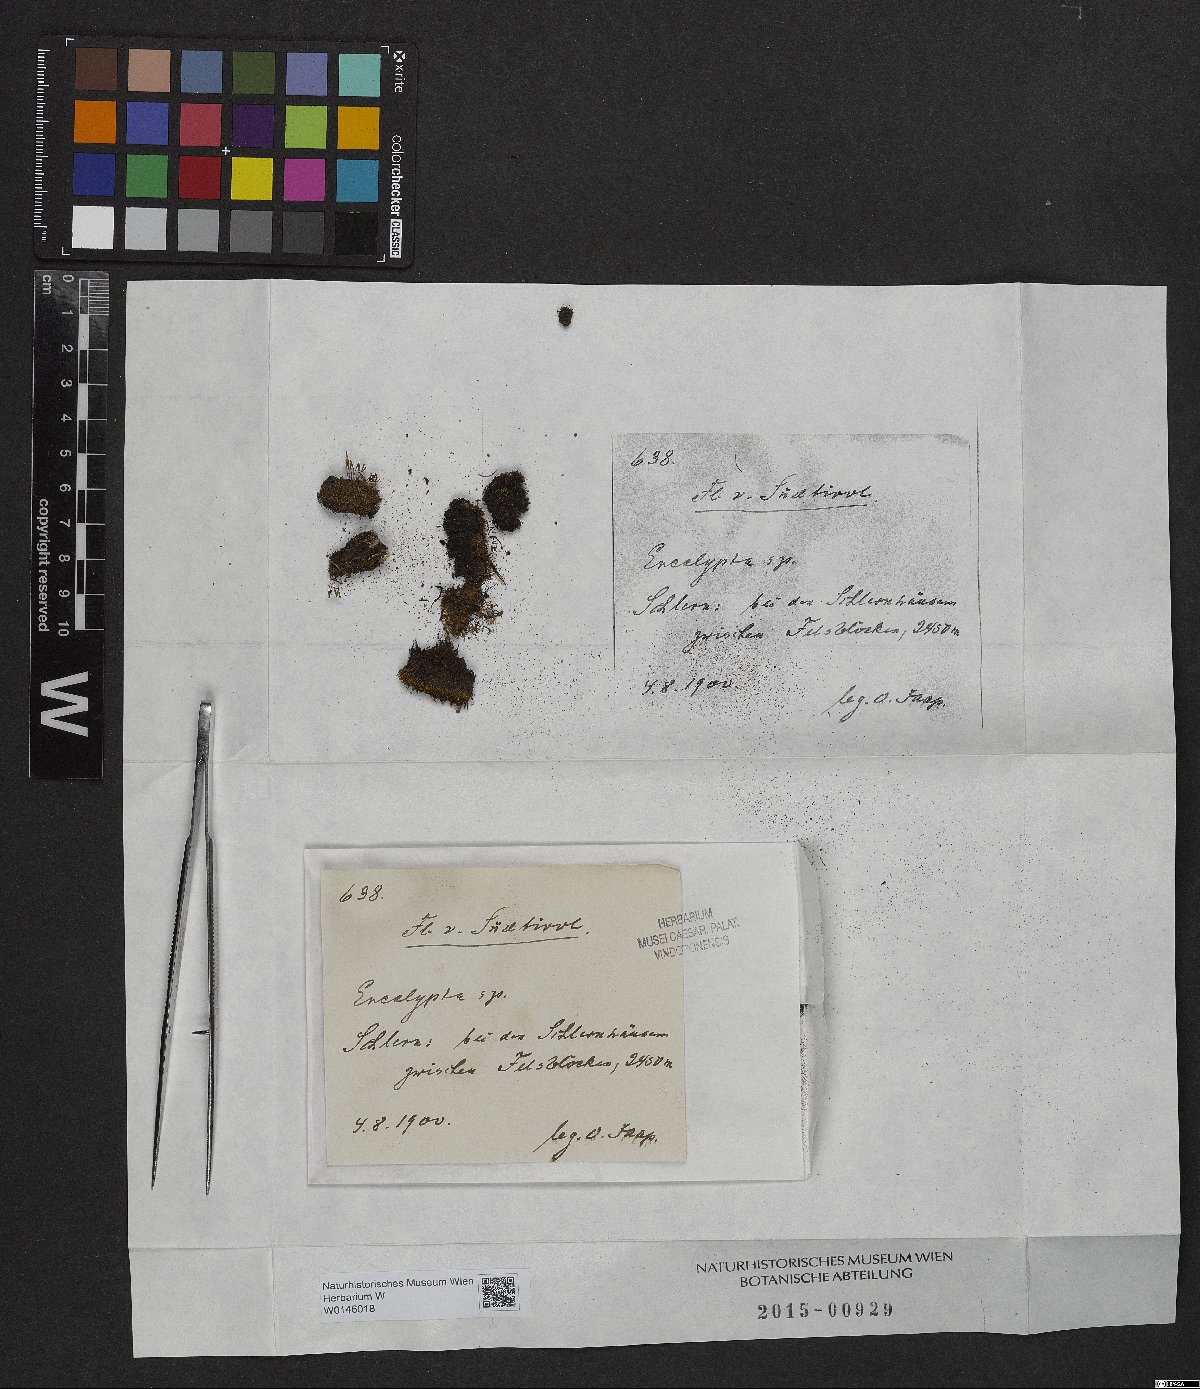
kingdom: Plantae
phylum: Bryophyta
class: Bryopsida
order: Encalyptales
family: Encalyptaceae
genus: Encalypta
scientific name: Encalypta
